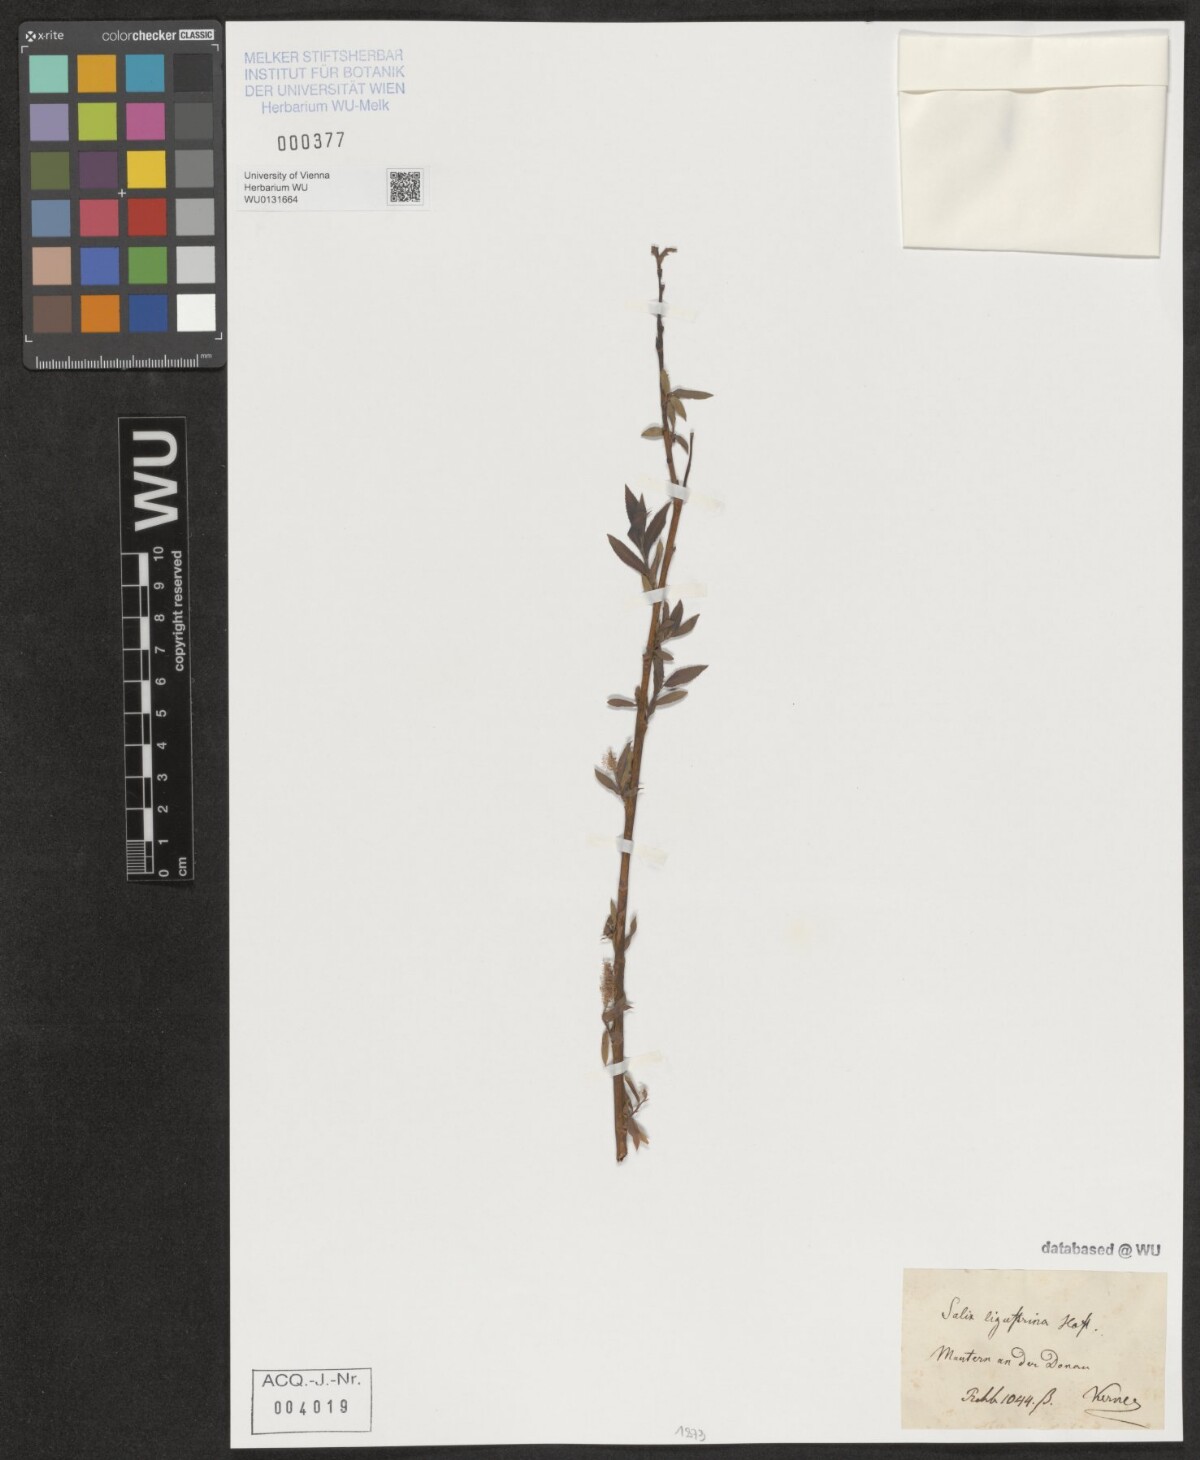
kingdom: Plantae
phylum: Tracheophyta
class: Magnoliopsida
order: Malpighiales
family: Salicaceae
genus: Salix
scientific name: Salix triandra
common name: Almond willow
